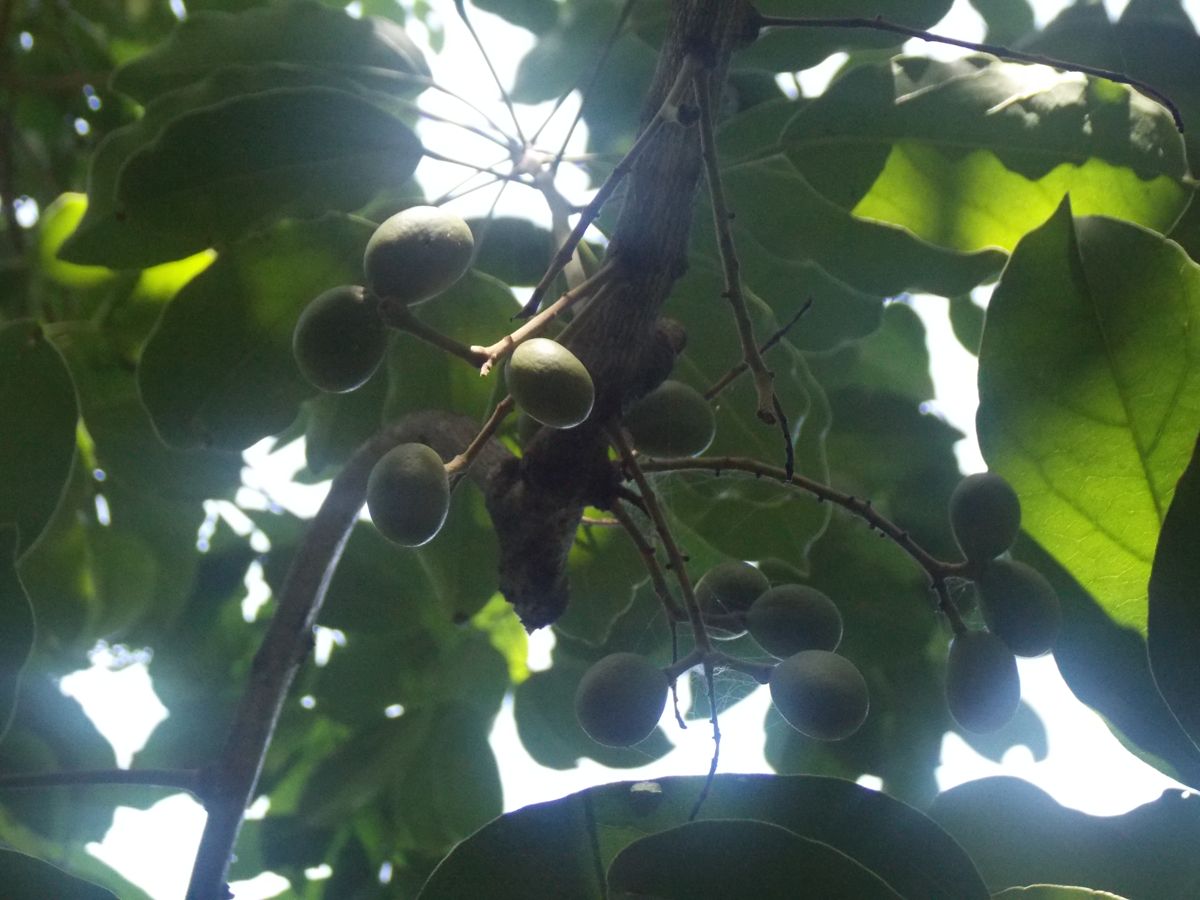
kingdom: Plantae
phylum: Tracheophyta
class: Magnoliopsida
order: Ranunculales
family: Menispermaceae
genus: Hyperbaena
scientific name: Hyperbaena tonduzii
